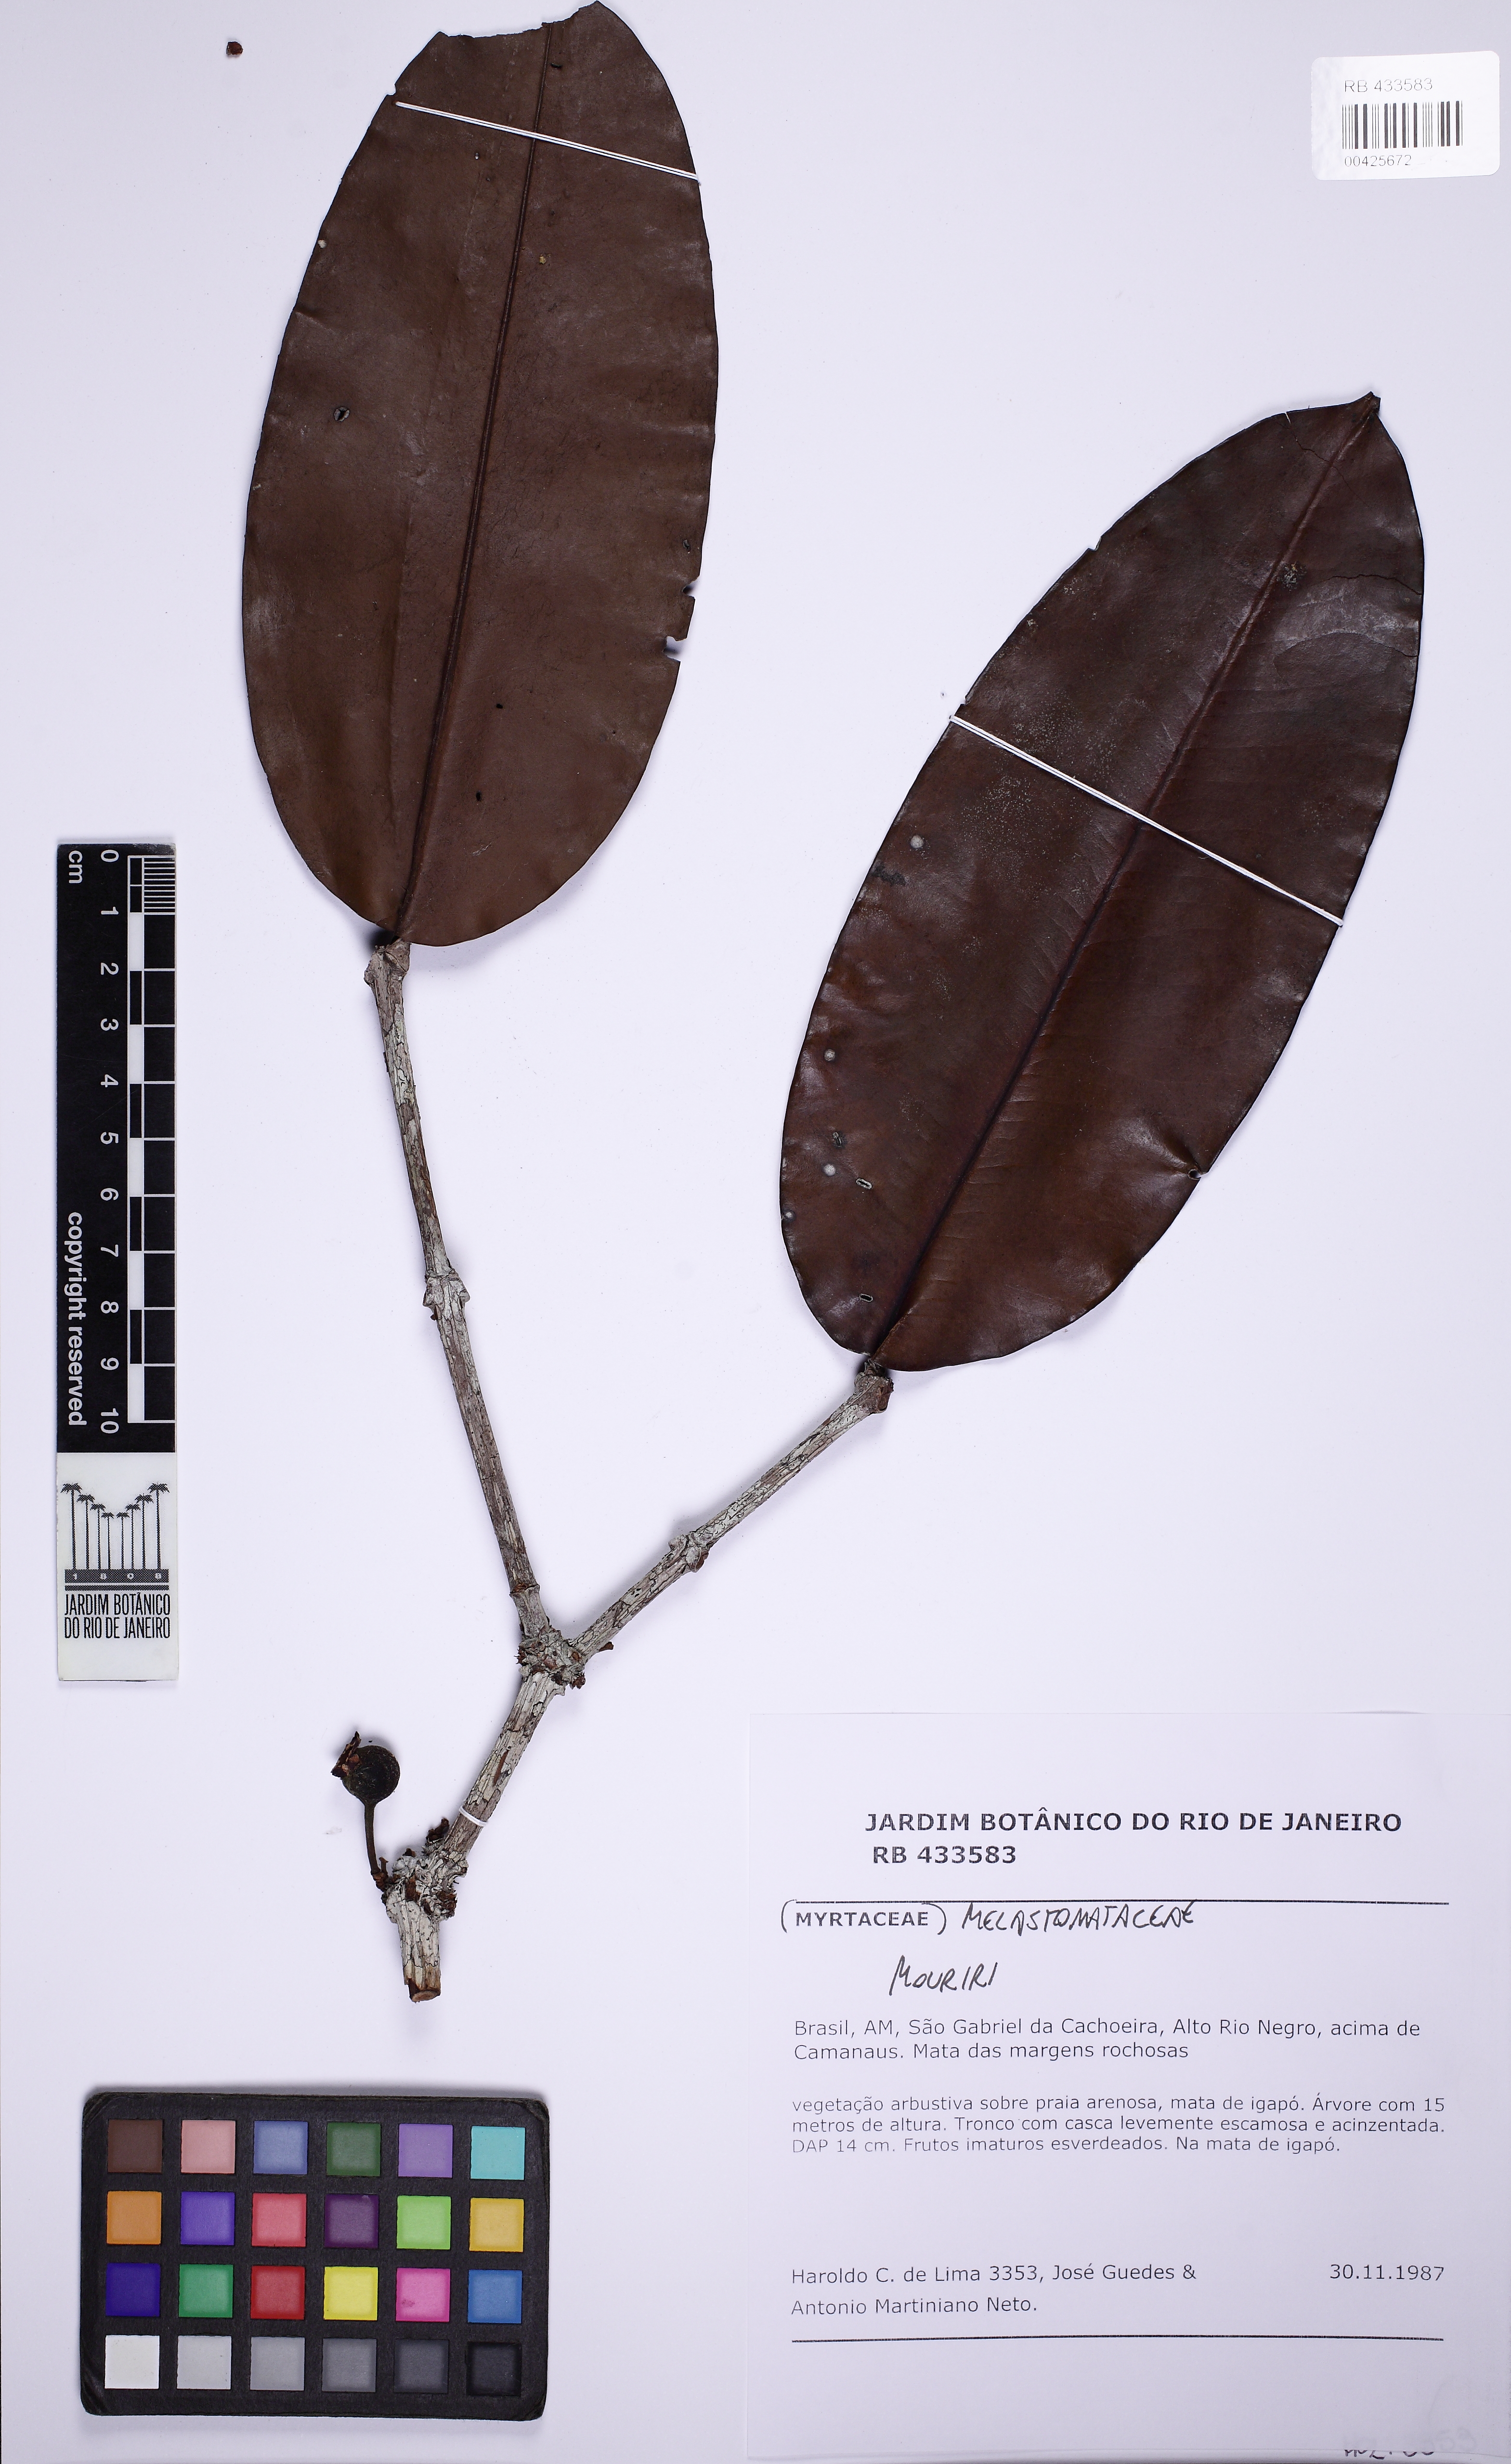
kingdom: Plantae
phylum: Tracheophyta
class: Magnoliopsida
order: Myrtales
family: Melastomataceae
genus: Mouriri
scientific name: Mouriri longifolia
